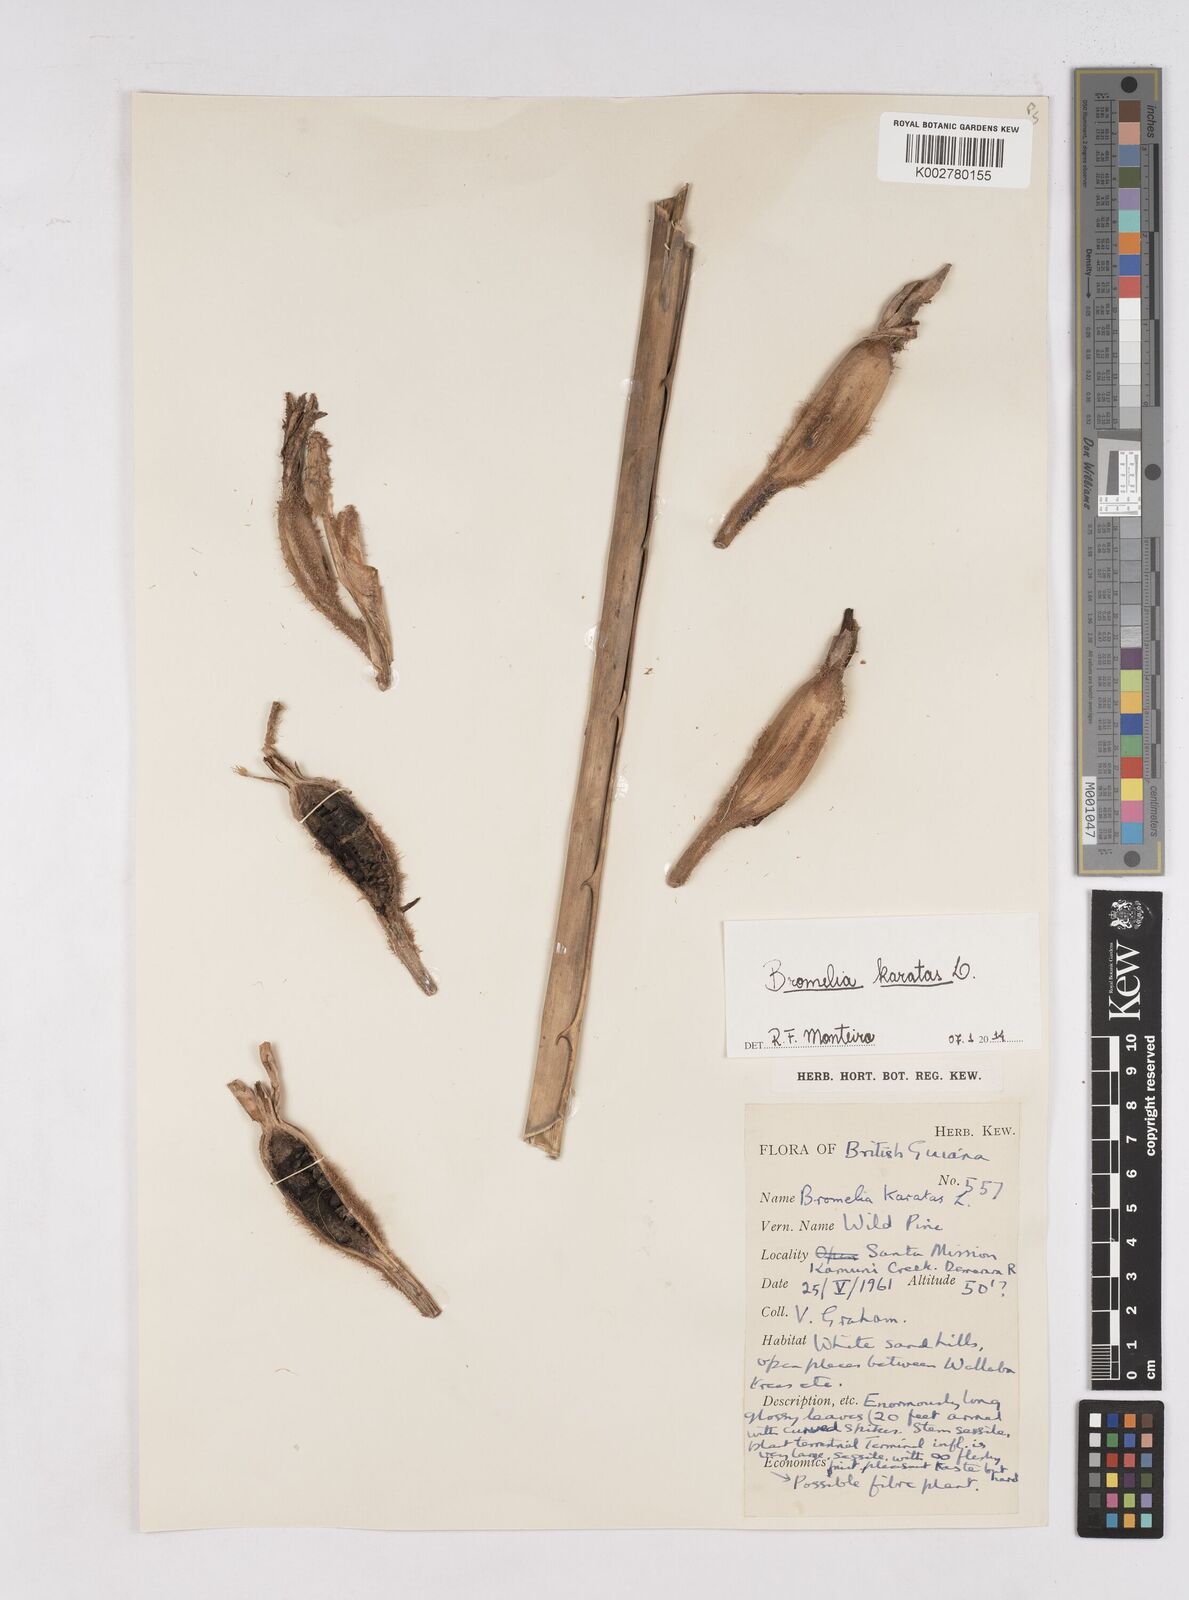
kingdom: Plantae
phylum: Tracheophyta
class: Liliopsida
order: Poales
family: Bromeliaceae
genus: Bromelia
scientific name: Bromelia karatas
